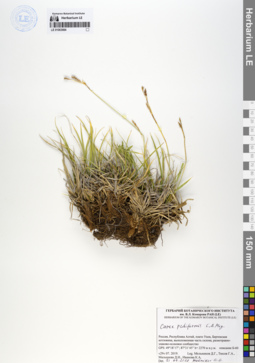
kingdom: Plantae
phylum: Tracheophyta
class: Liliopsida
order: Poales
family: Cyperaceae
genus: Carex
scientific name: Carex pediformis
